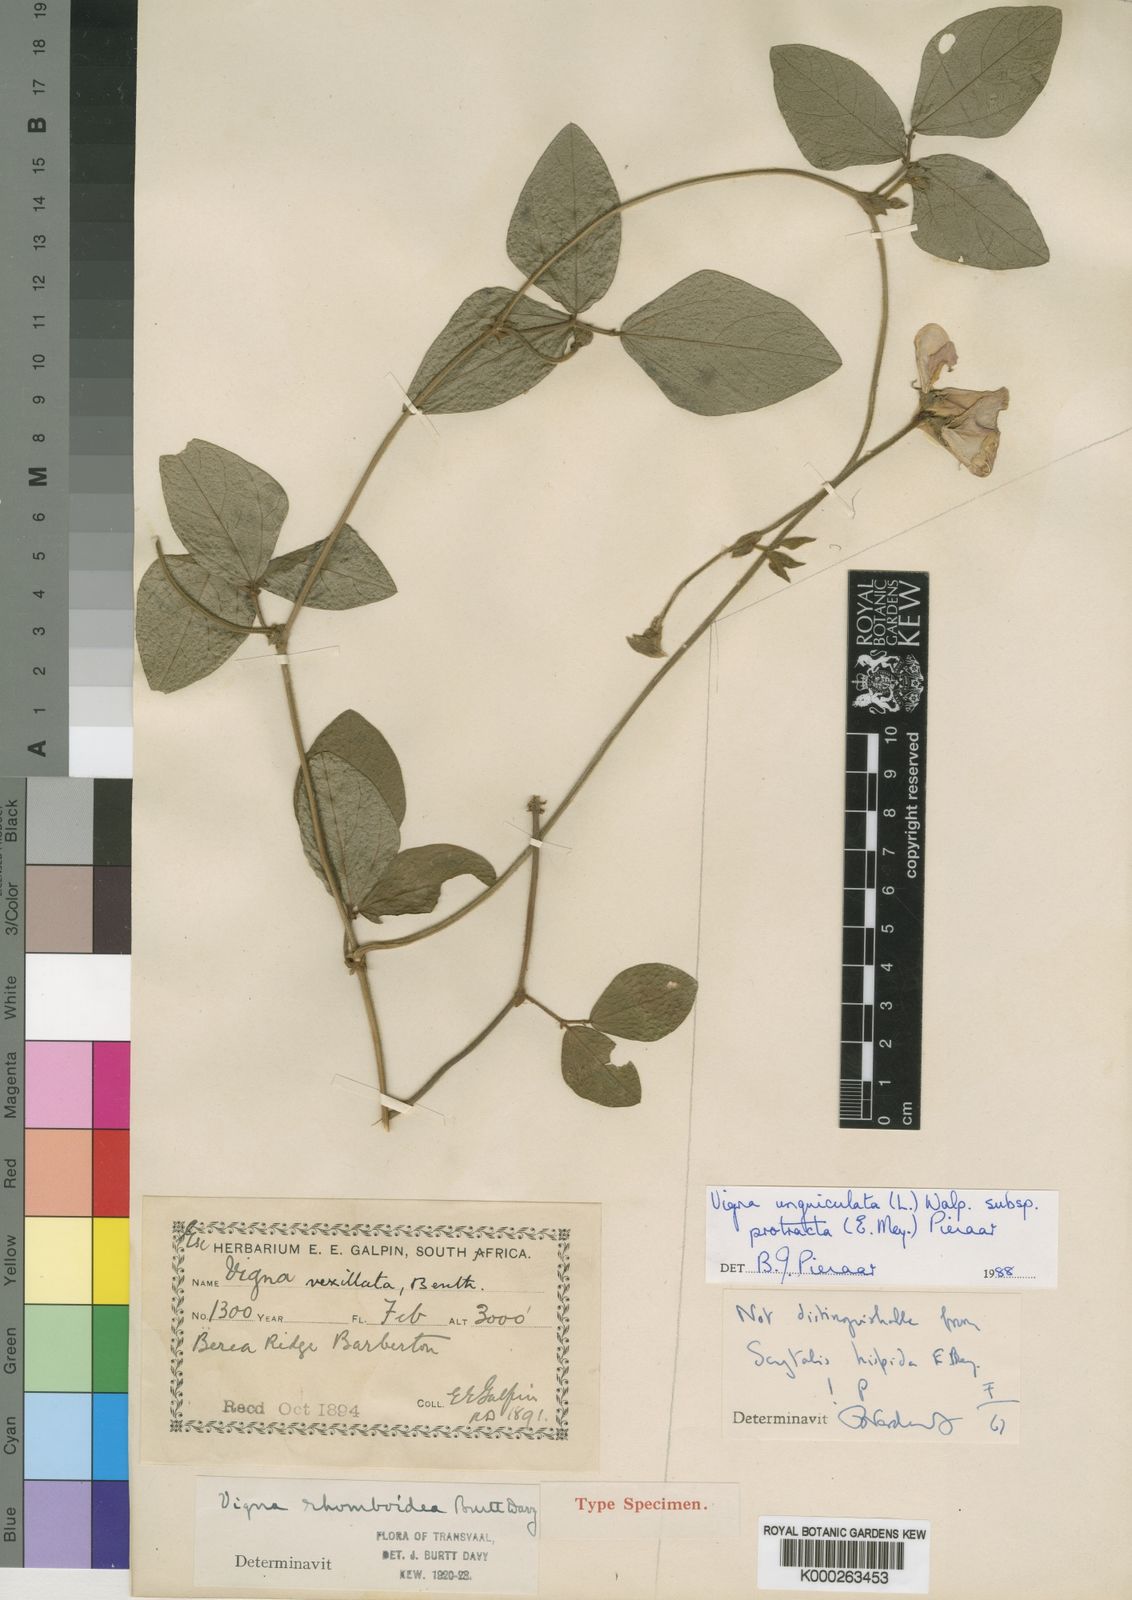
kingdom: Plantae
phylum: Tracheophyta
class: Magnoliopsida
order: Fabales
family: Fabaceae
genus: Vigna
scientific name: Vigna unguiculata
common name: Cowpea
